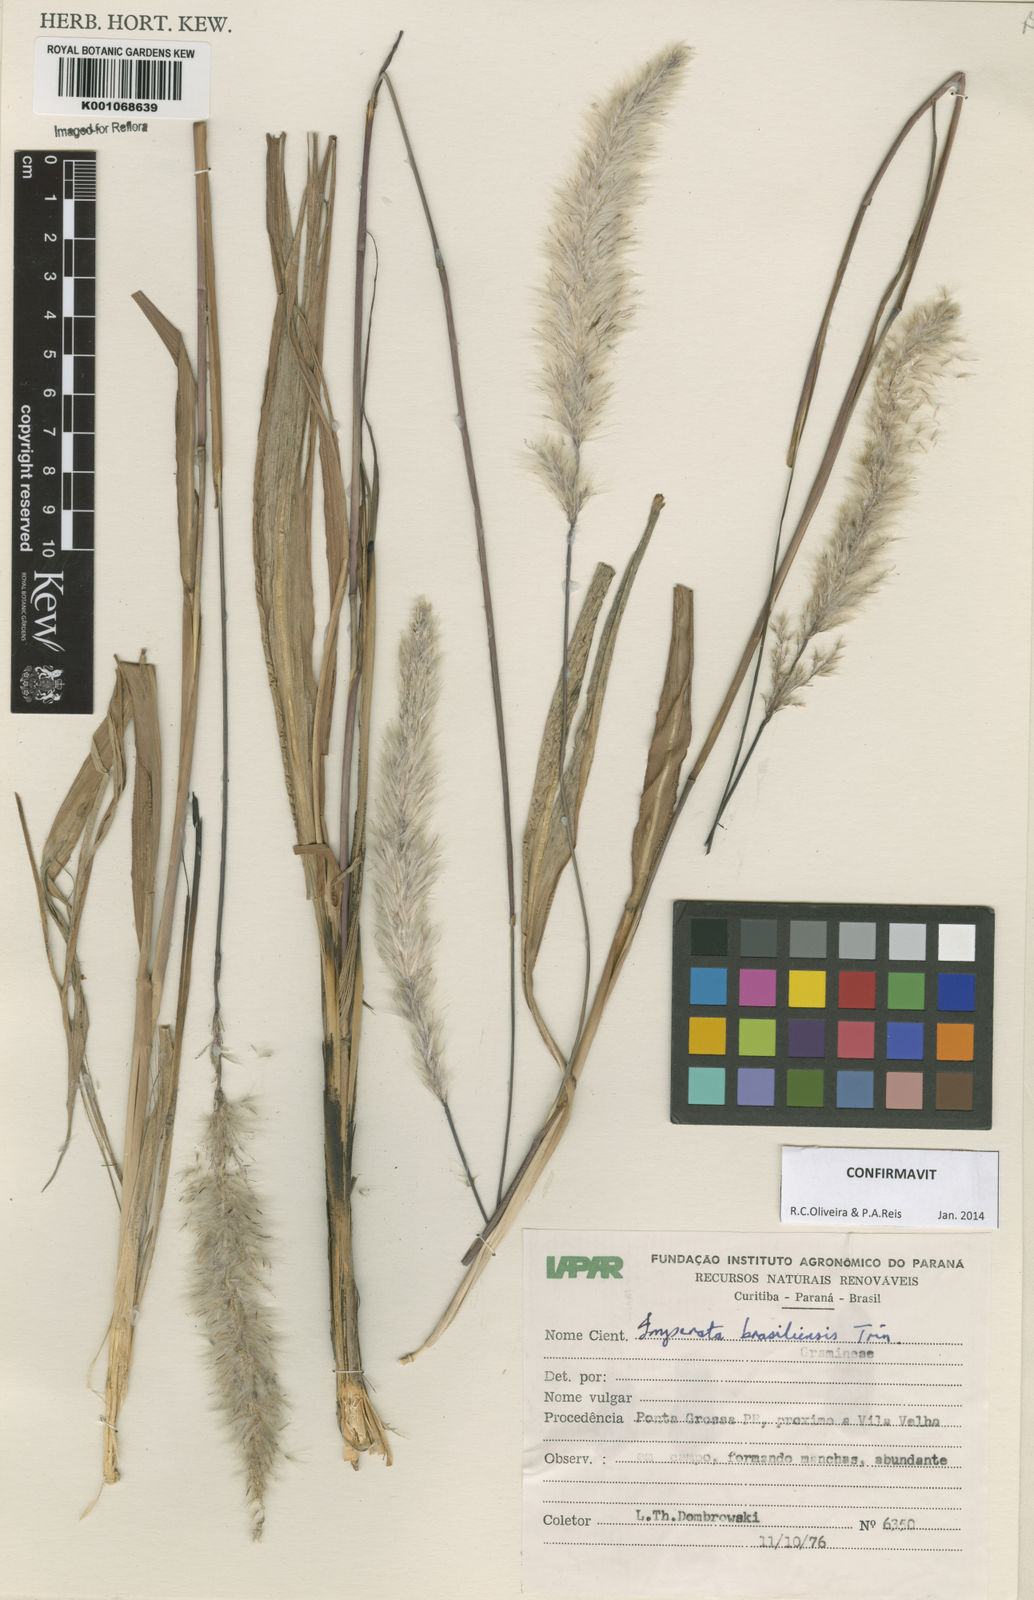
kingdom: Plantae
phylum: Tracheophyta
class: Liliopsida
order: Poales
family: Poaceae
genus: Imperata
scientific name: Imperata brasiliensis
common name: Brazilian satintail
